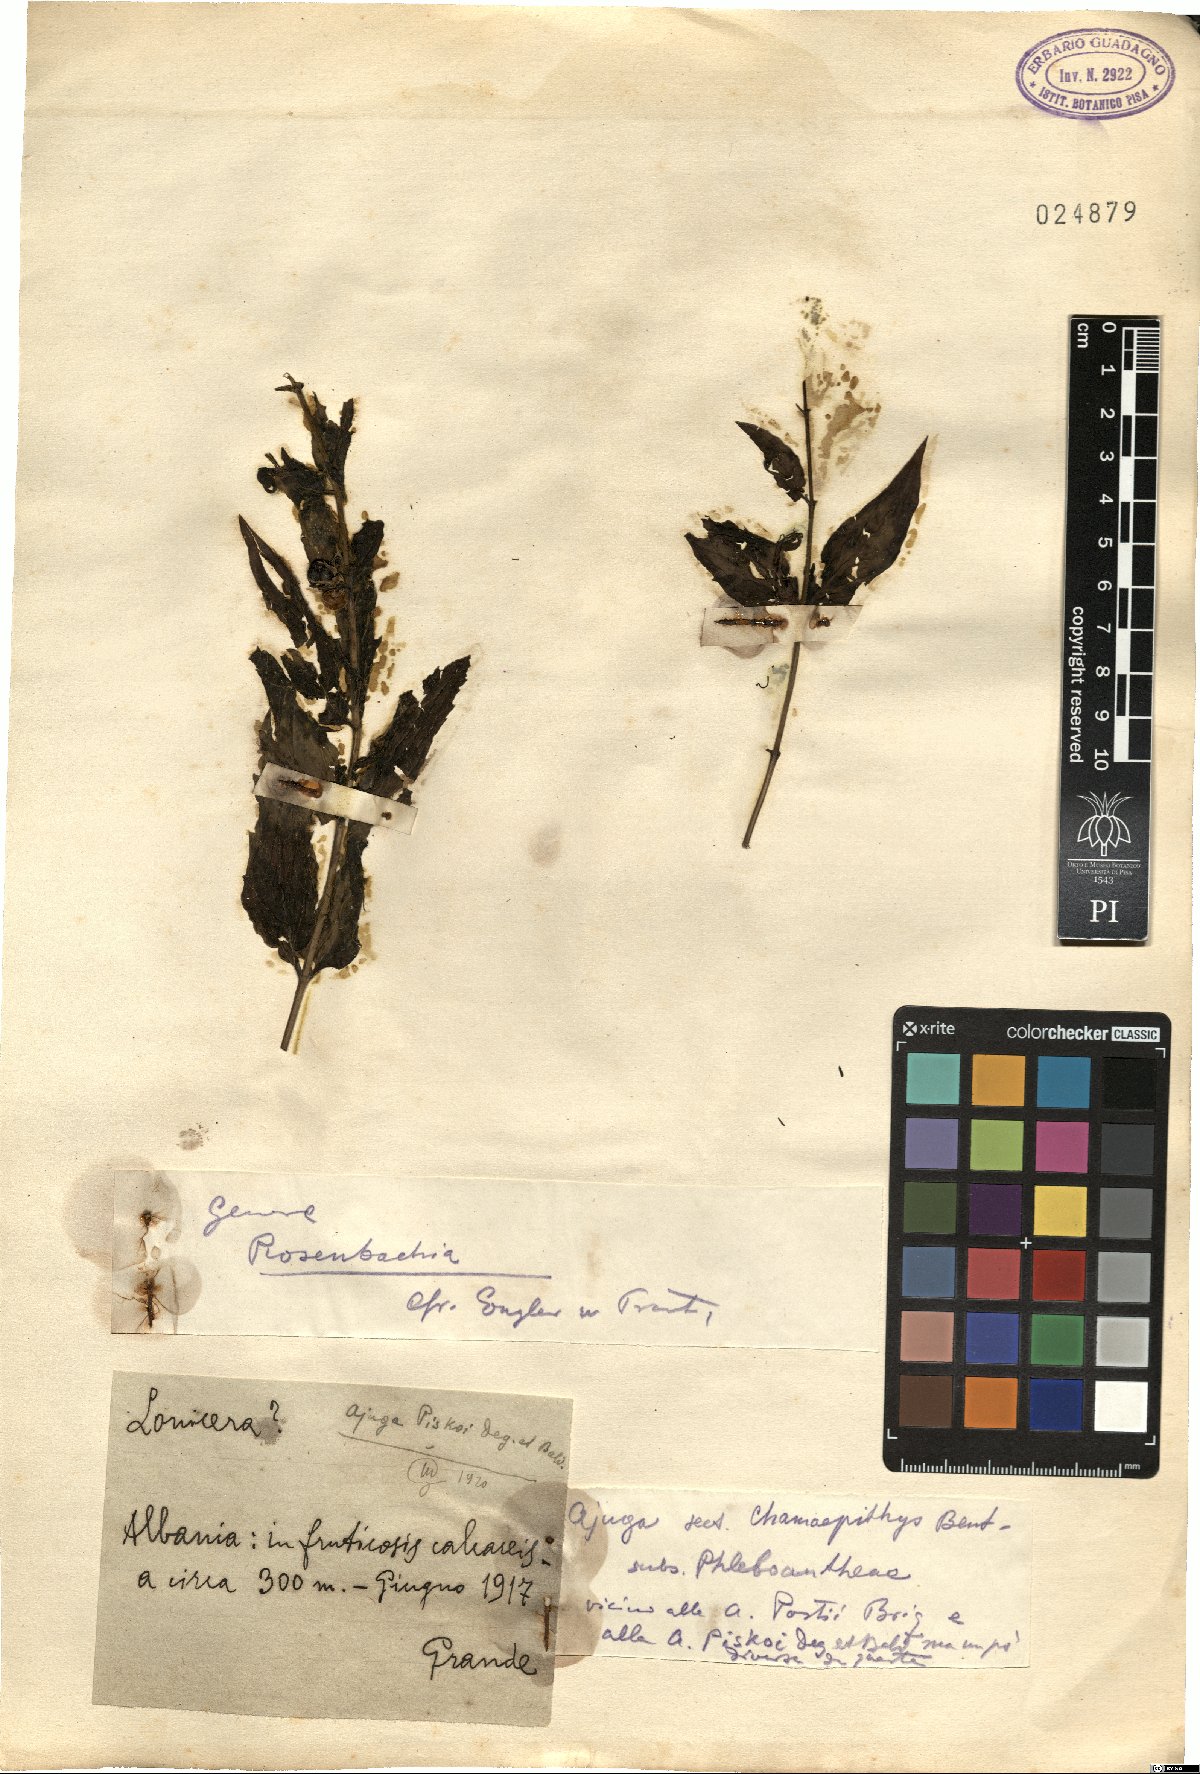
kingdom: Plantae
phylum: Tracheophyta
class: Magnoliopsida
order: Lamiales
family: Lamiaceae
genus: Ajuga
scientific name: Ajuga piskoi
